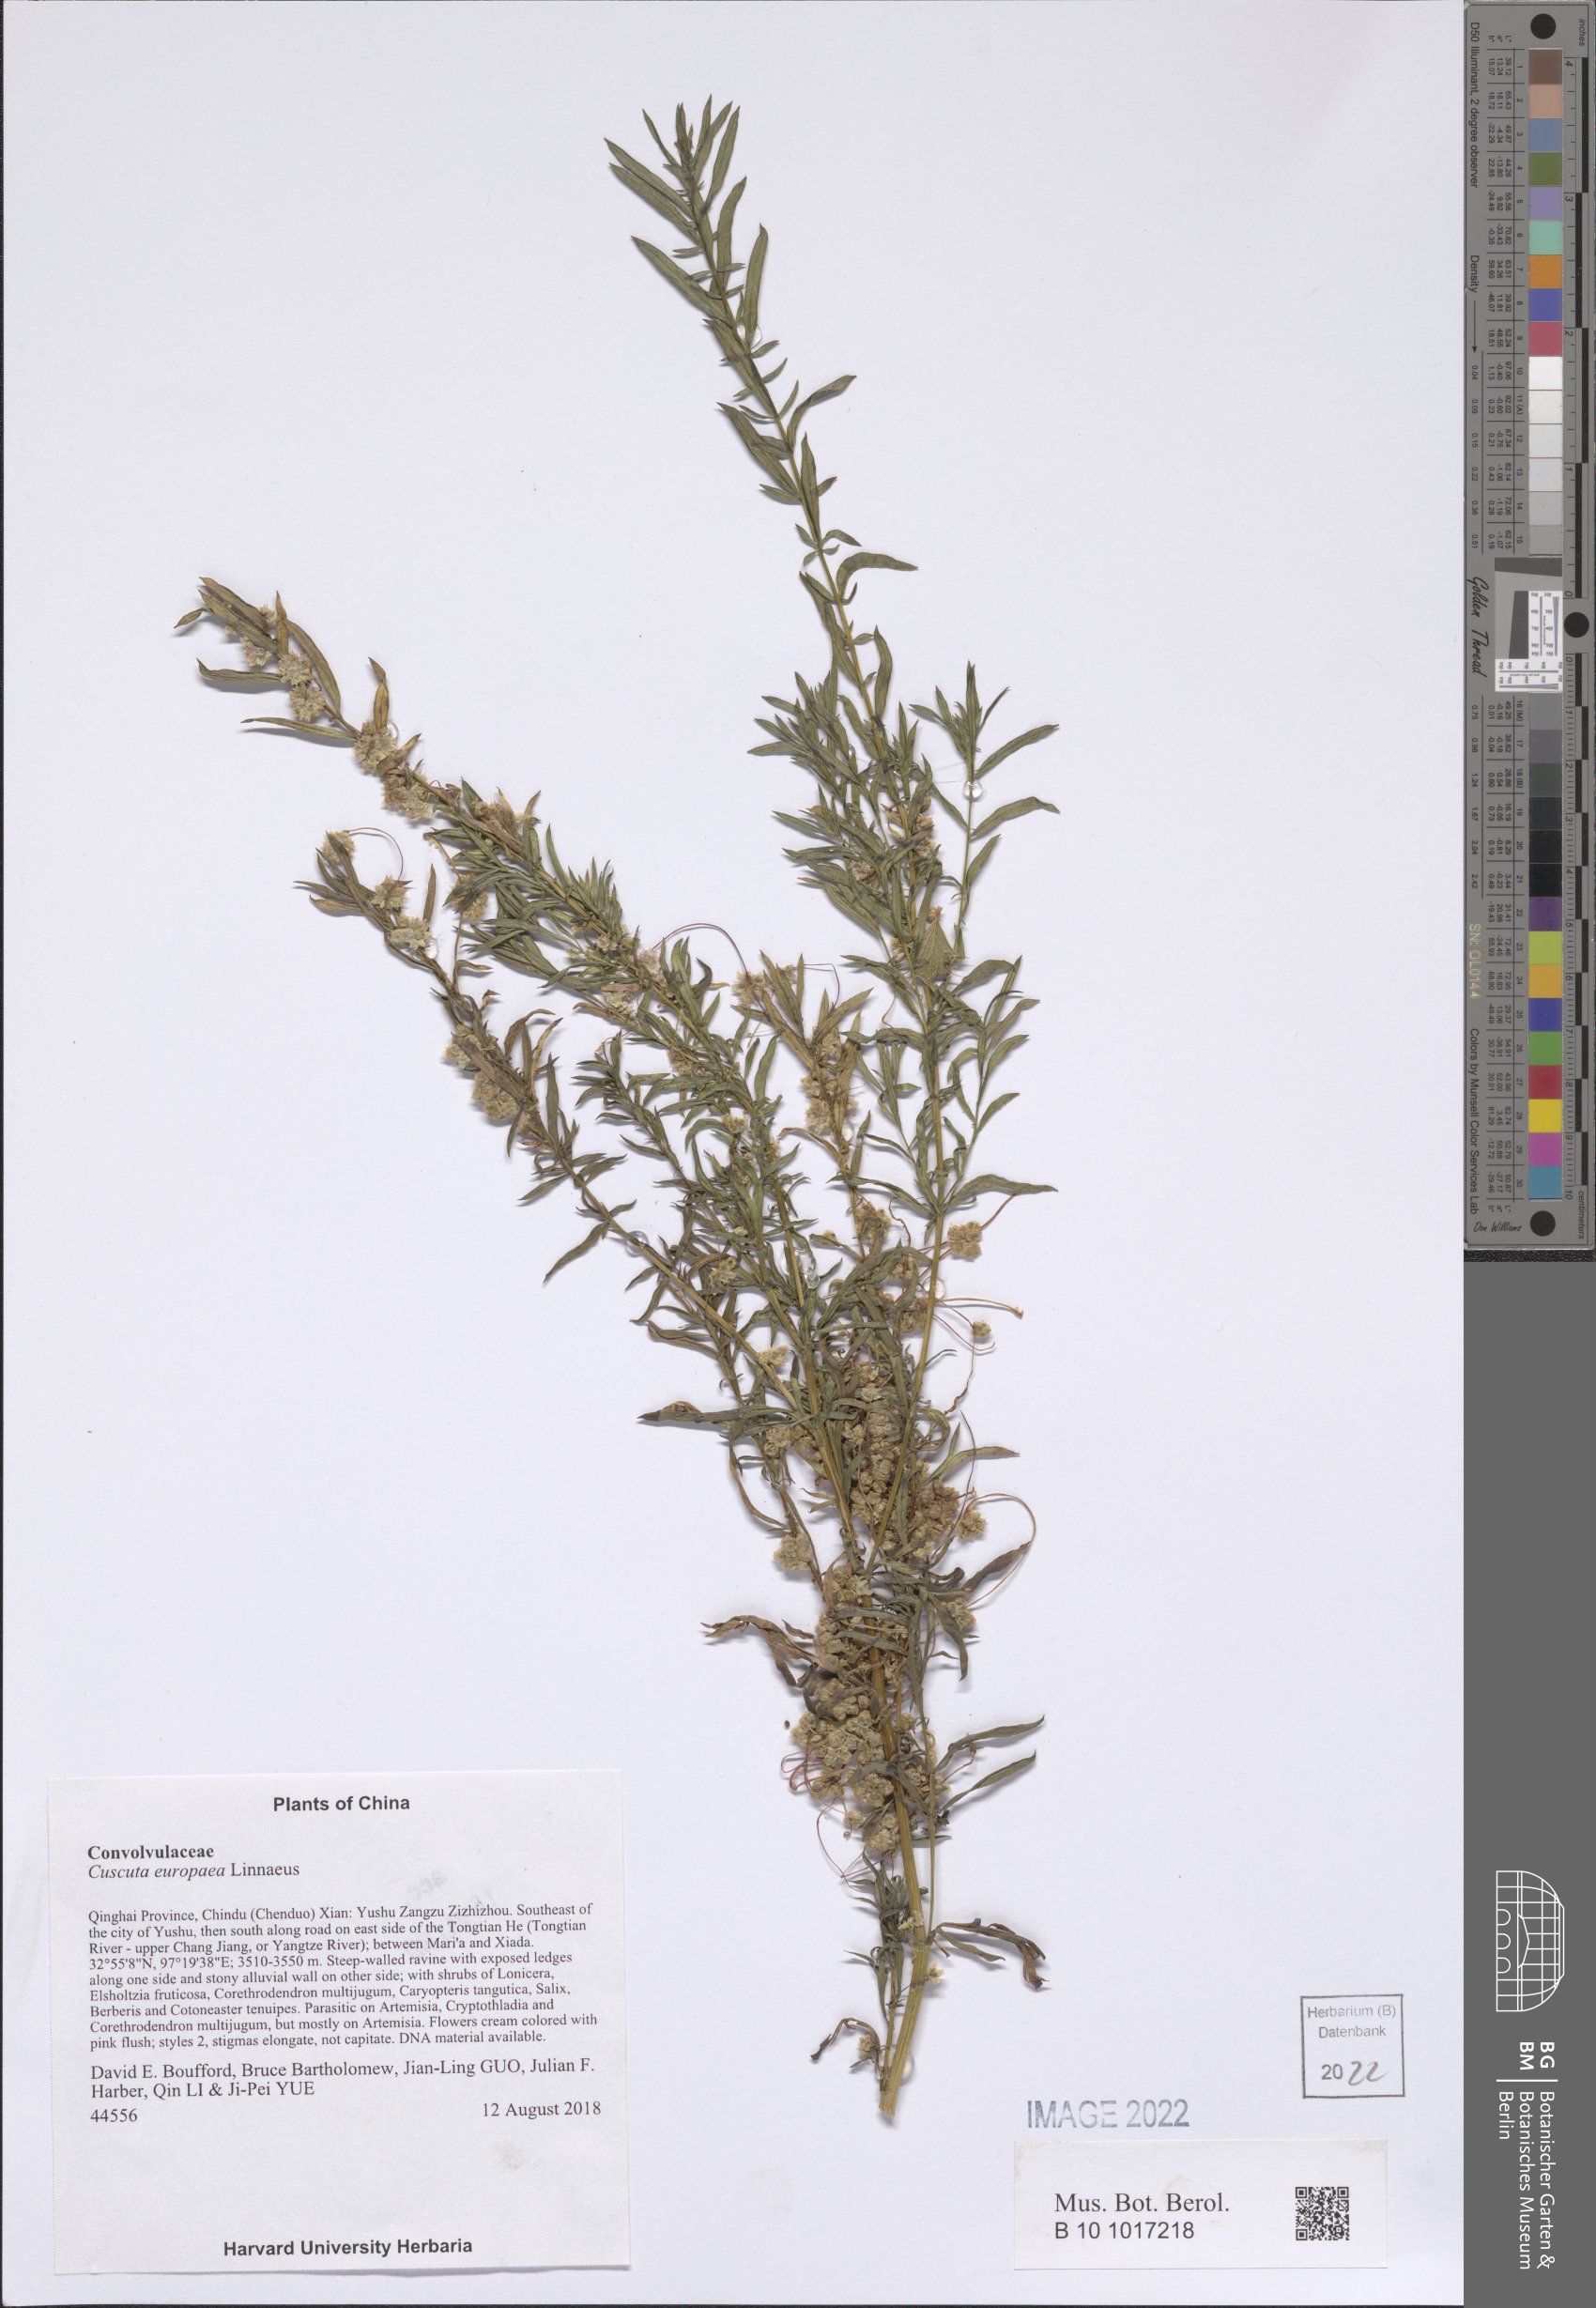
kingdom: Plantae
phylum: Tracheophyta
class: Magnoliopsida
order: Solanales
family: Convolvulaceae
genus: Cuscuta
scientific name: Cuscuta europaea
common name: Greater dodder
